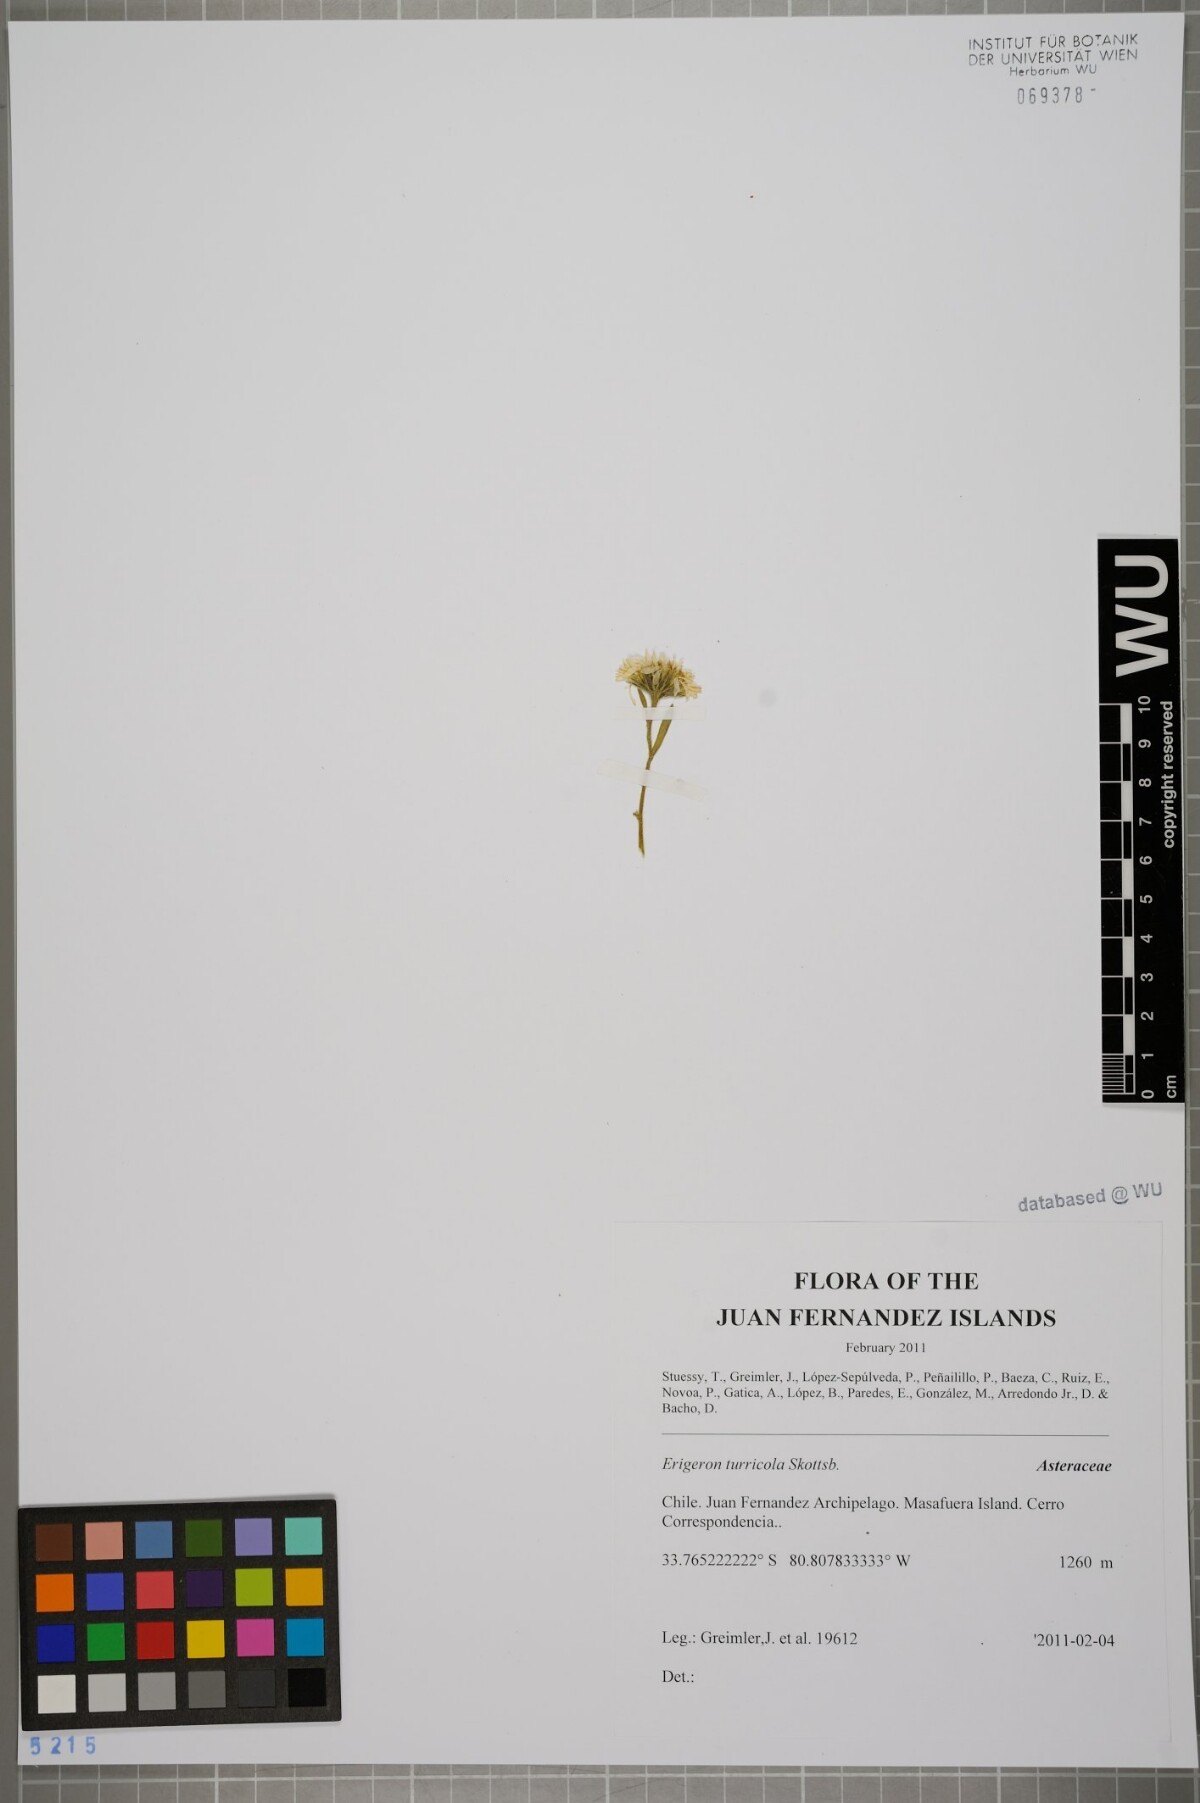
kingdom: Plantae
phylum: Tracheophyta
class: Magnoliopsida
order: Asterales
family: Asteraceae
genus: Erigeron
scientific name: Erigeron ingae
